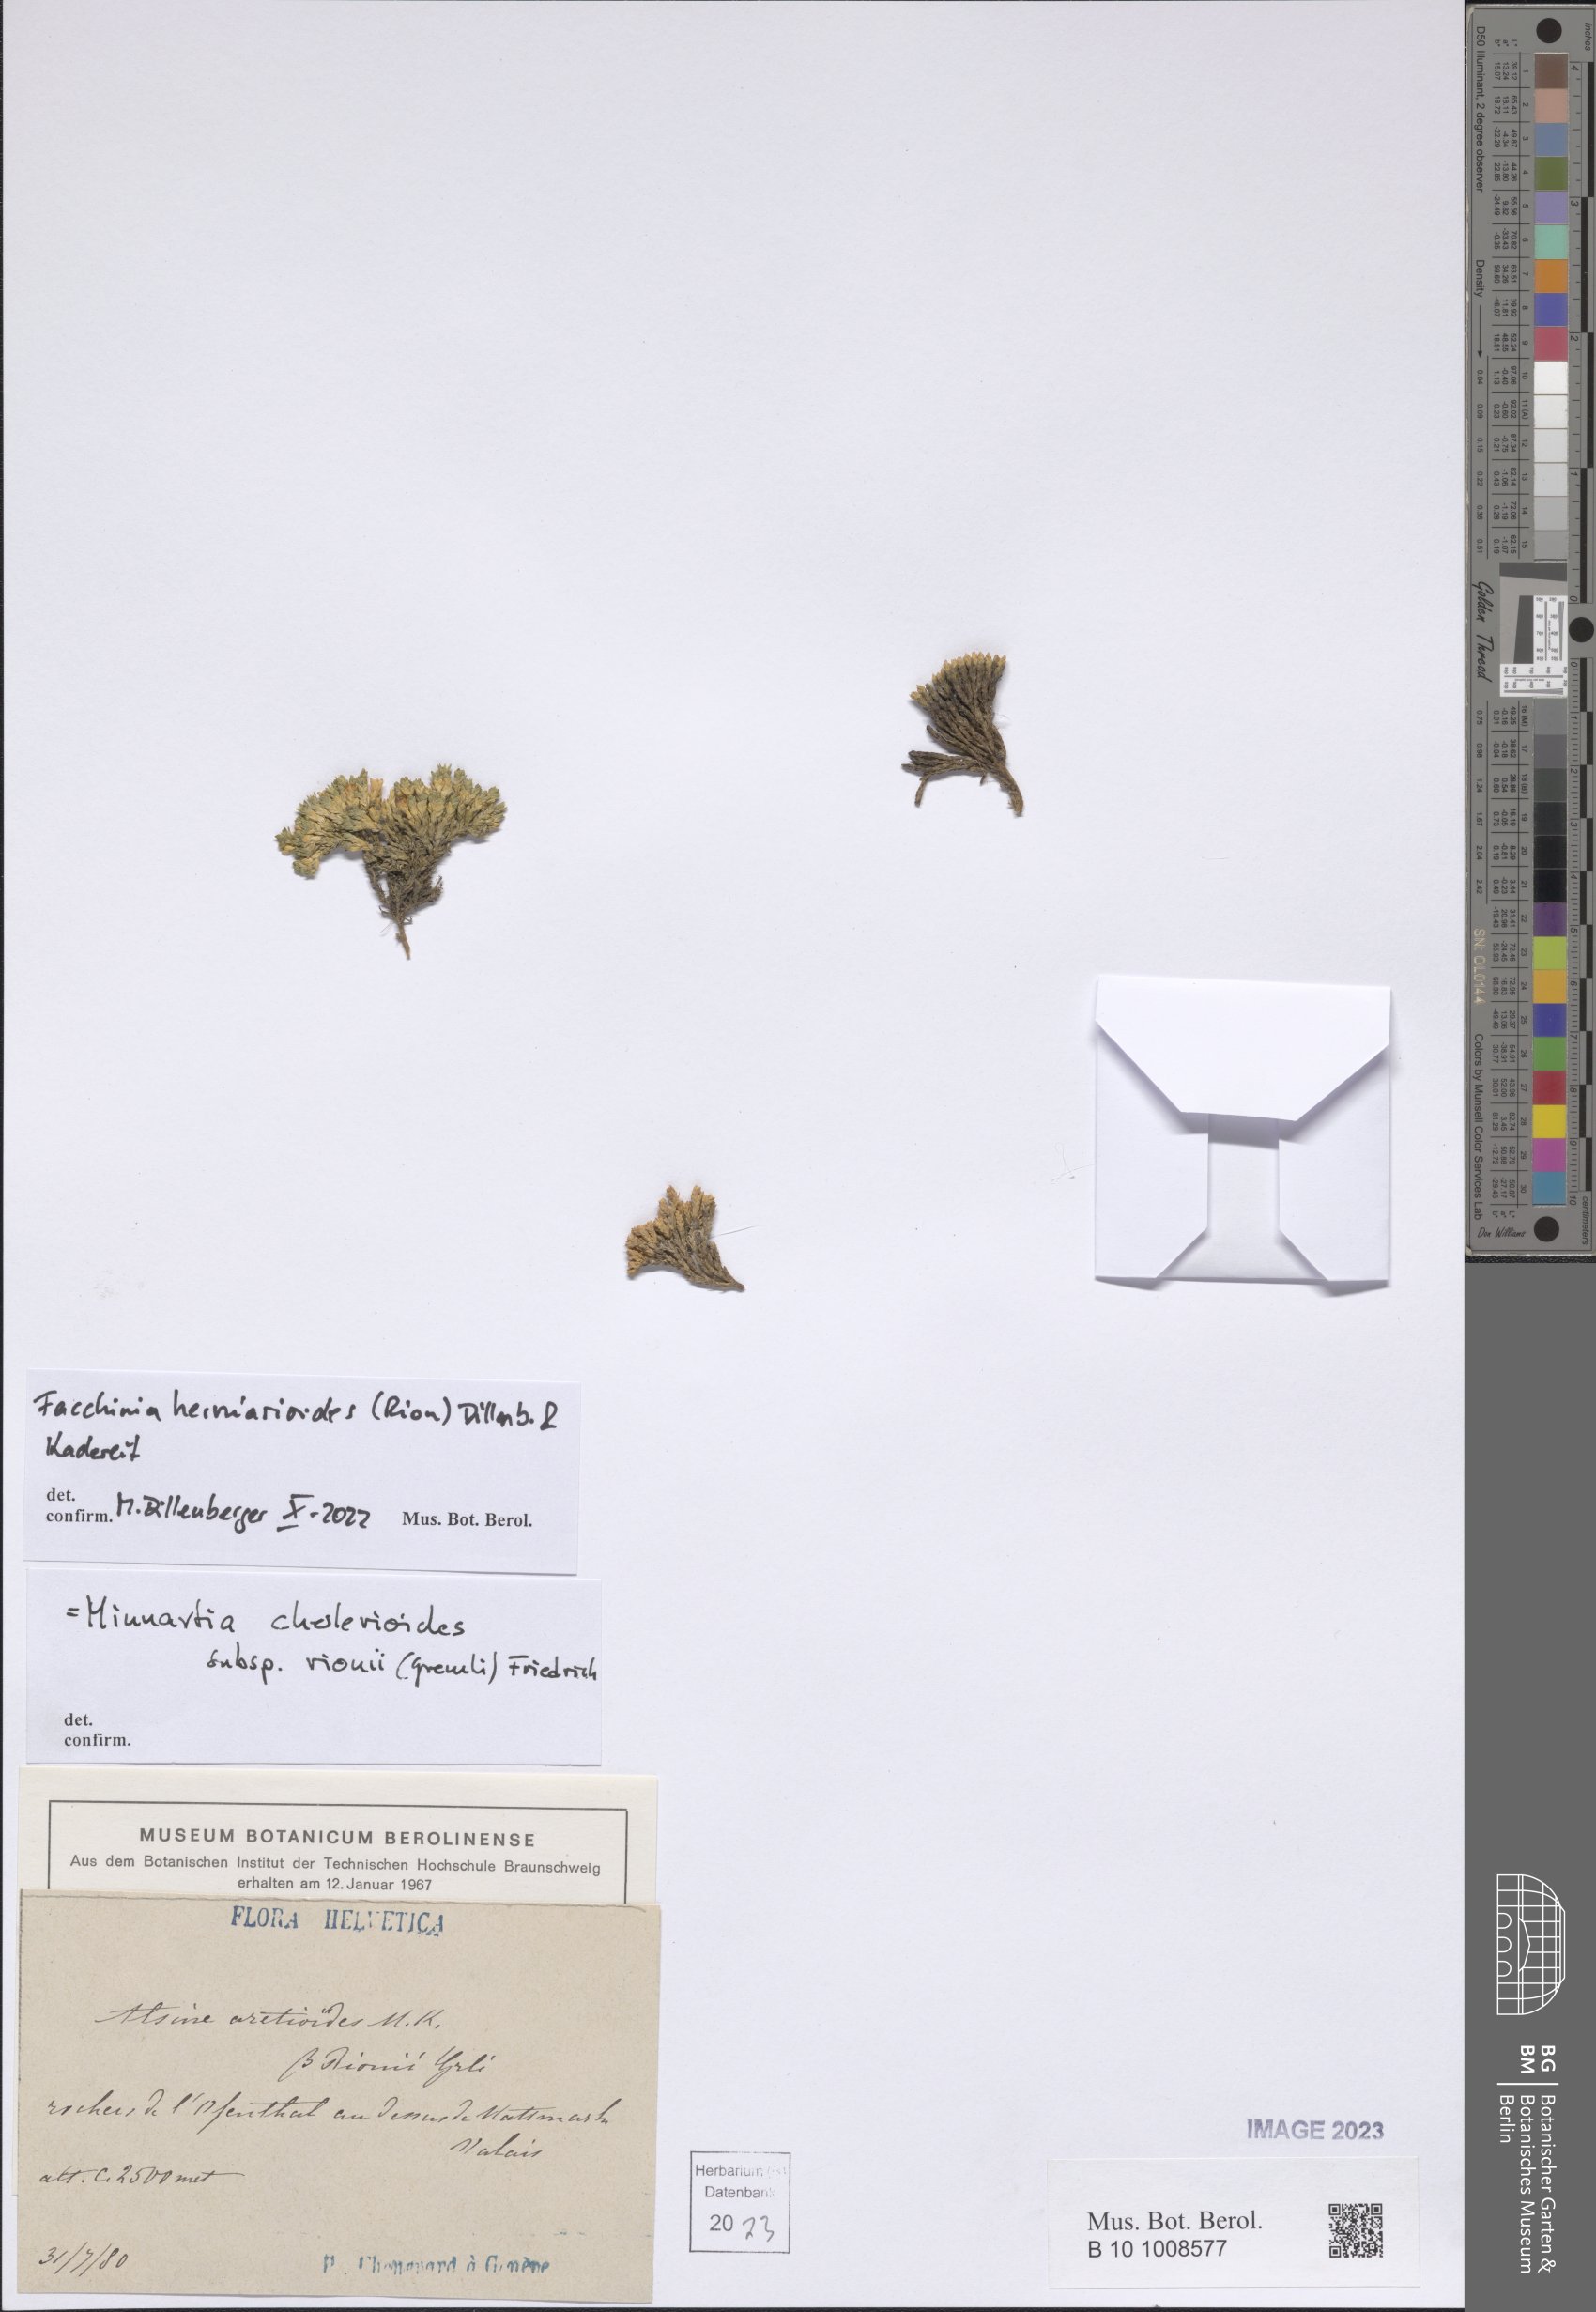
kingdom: Plantae
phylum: Tracheophyta
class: Magnoliopsida
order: Caryophyllales
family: Caryophyllaceae
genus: Facchinia
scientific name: Facchinia herniarioides
